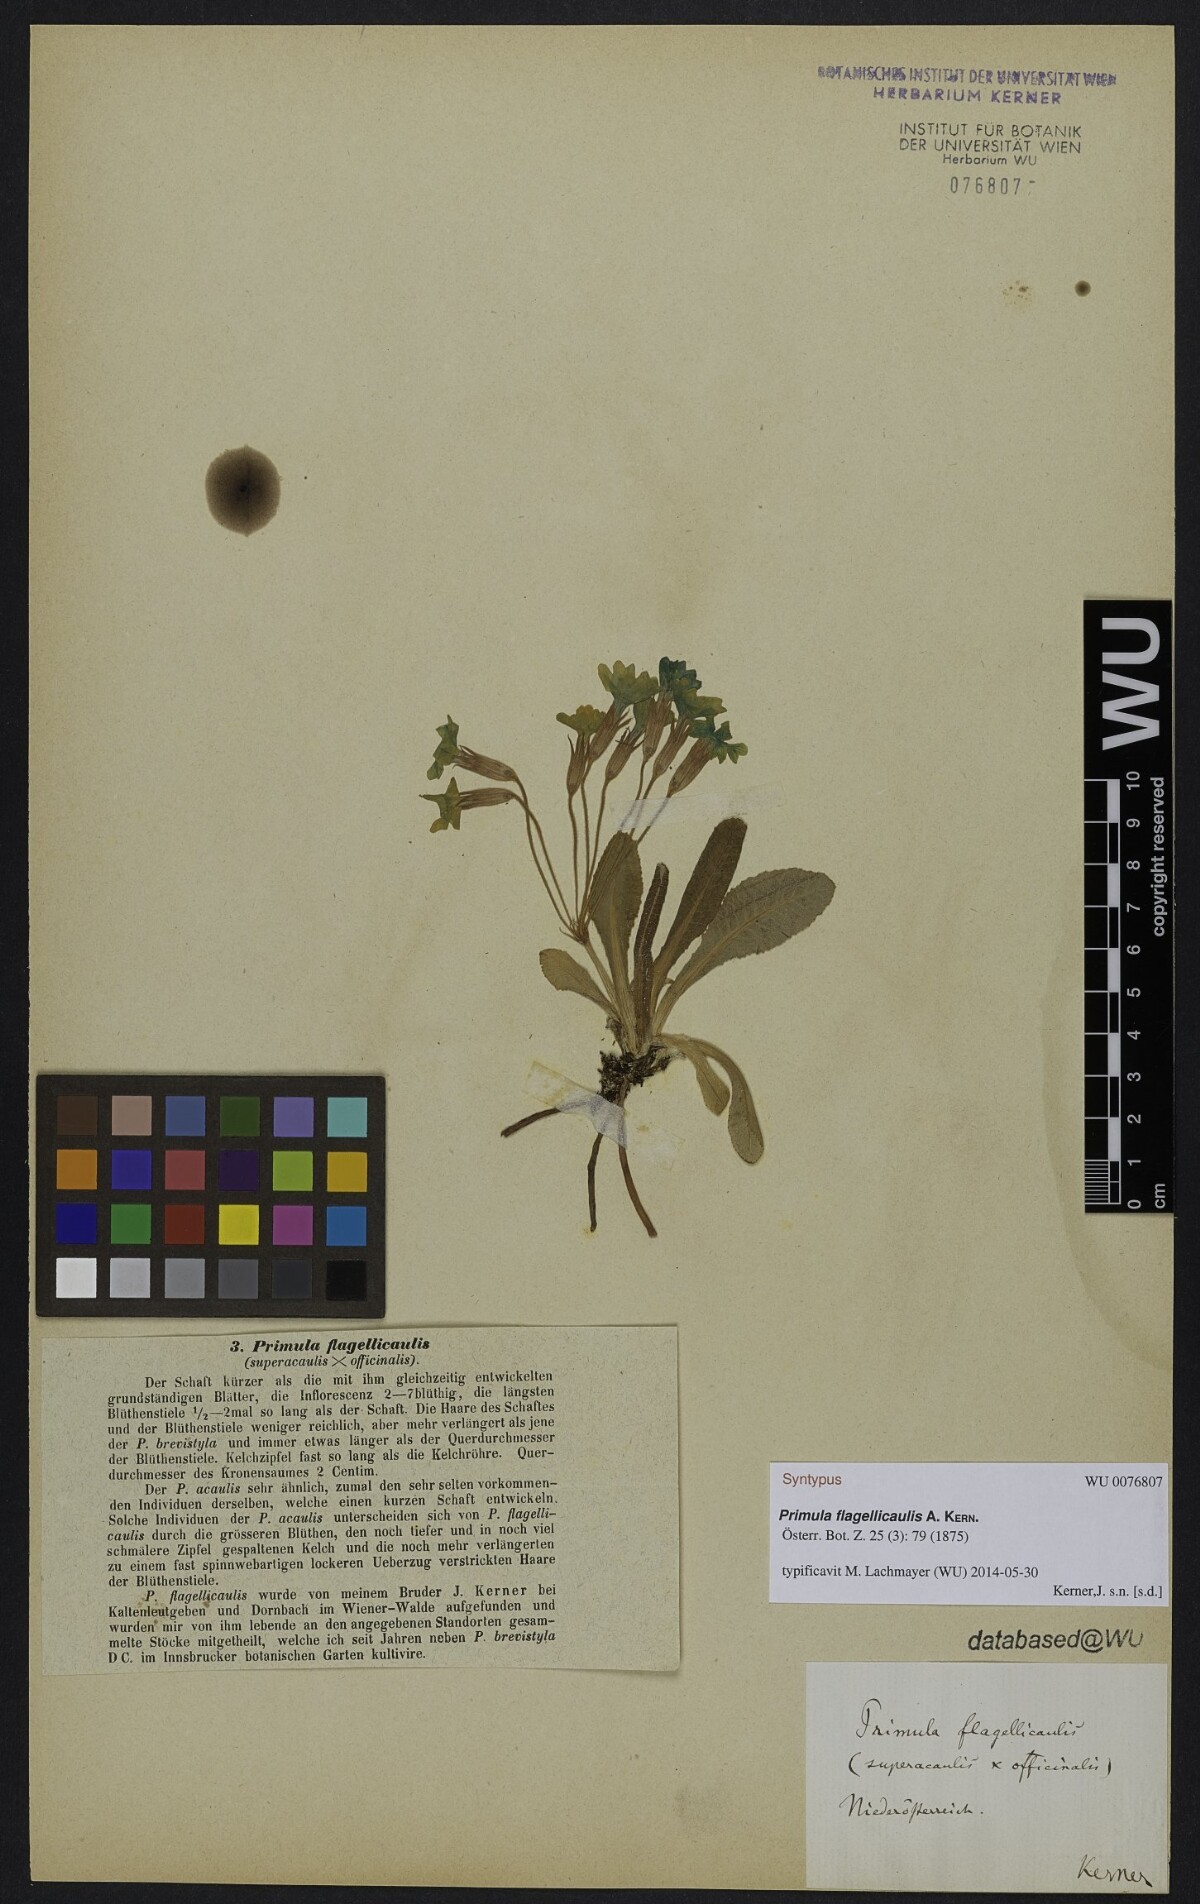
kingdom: Plantae
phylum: Tracheophyta
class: Magnoliopsida
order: Ericales
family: Primulaceae
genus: Primula
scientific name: Primula polyantha
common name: False oxlip
